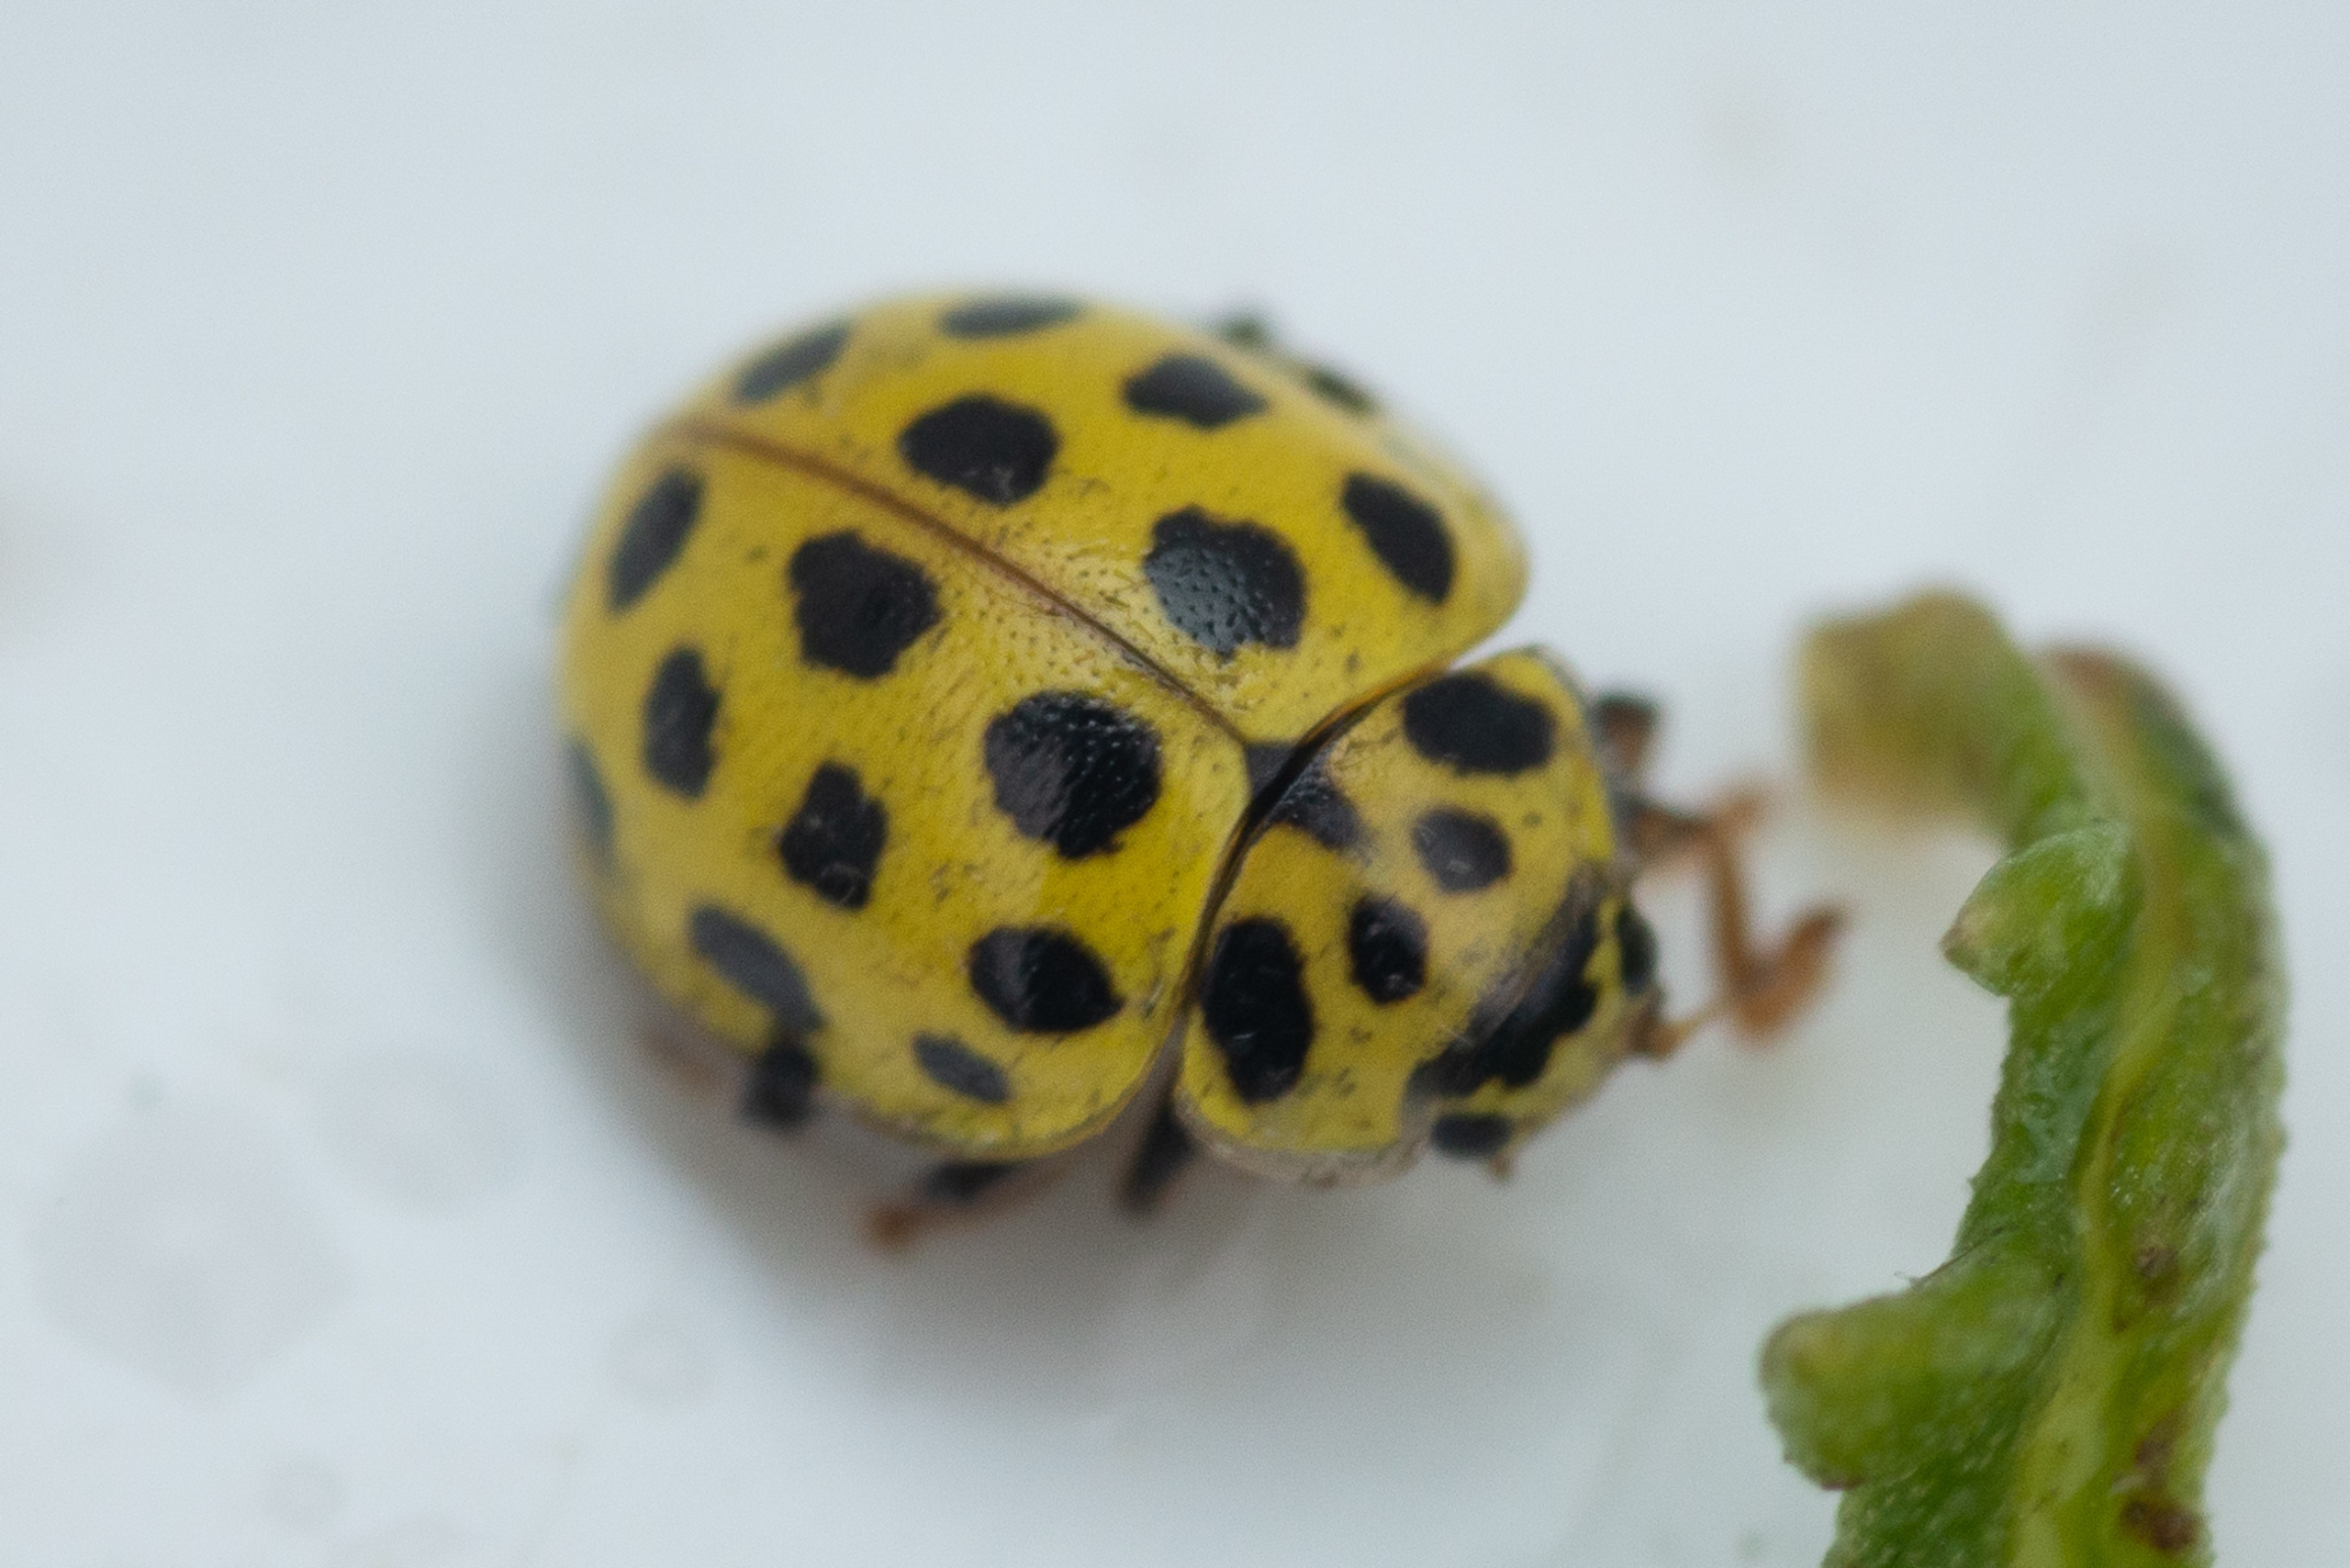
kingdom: Animalia
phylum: Arthropoda
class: Insecta
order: Coleoptera
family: Coccinellidae
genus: Psyllobora
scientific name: Psyllobora vigintiduopunctata
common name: Toogtyveplettet mariehøne
